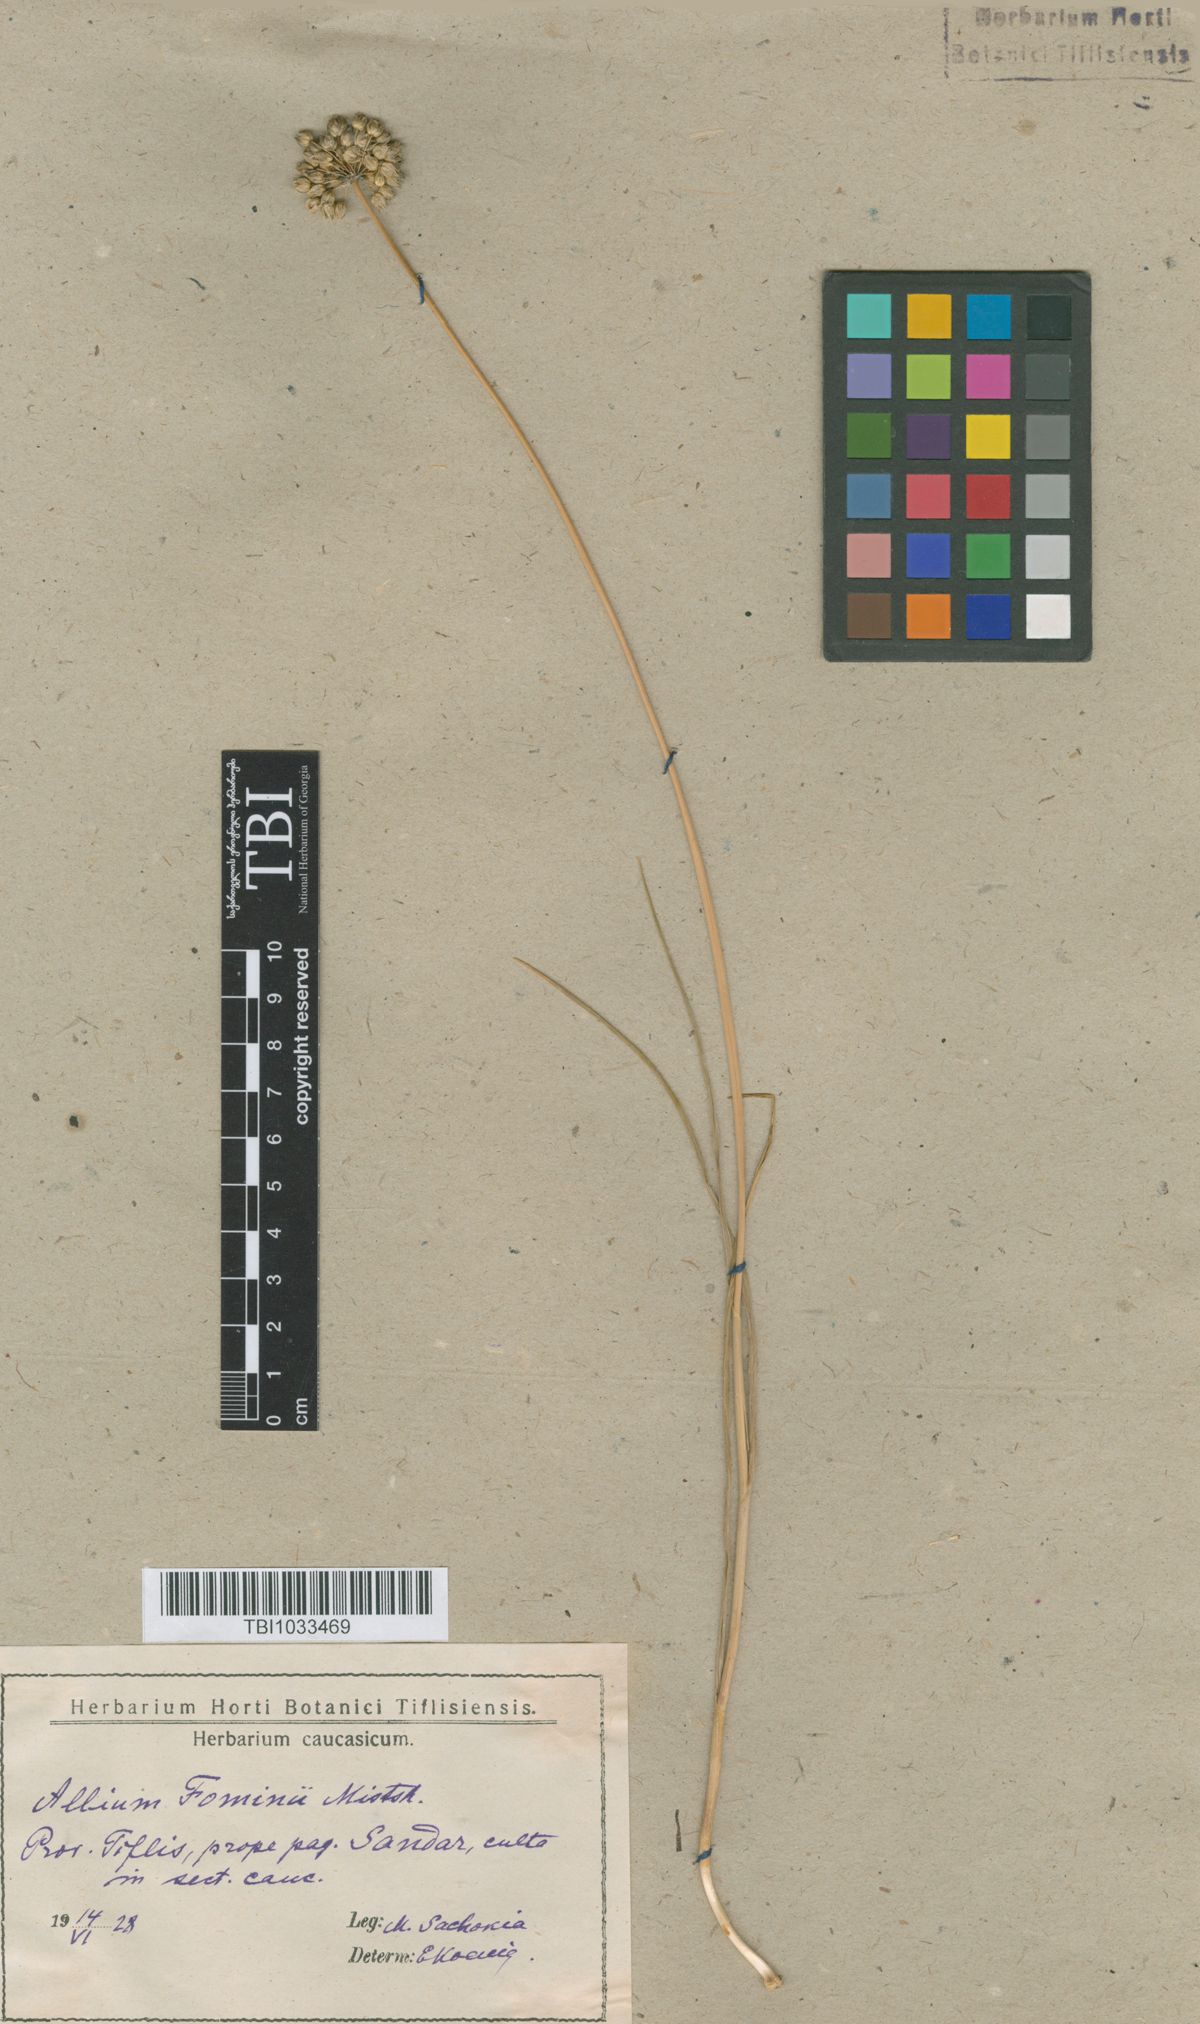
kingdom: Plantae
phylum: Tracheophyta
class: Liliopsida
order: Asparagales
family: Amaryllidaceae
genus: Allium
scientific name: Allium gramineum
